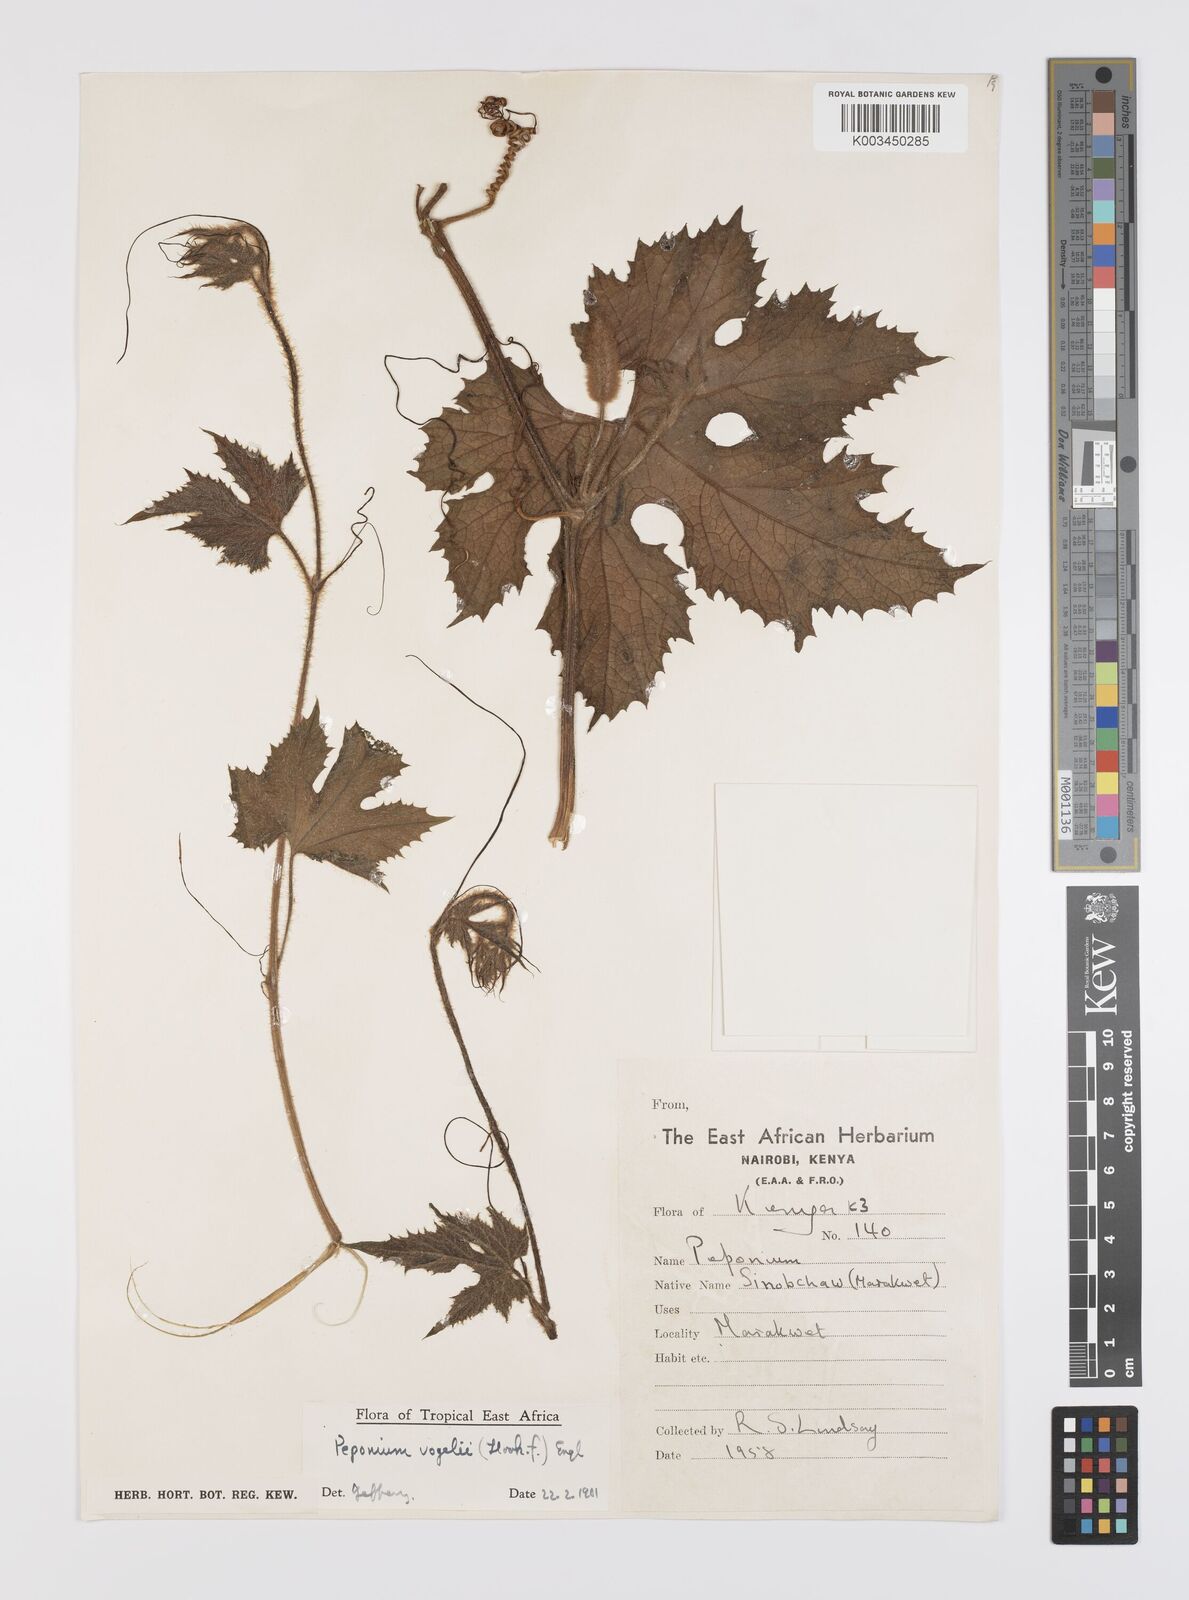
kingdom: Plantae
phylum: Tracheophyta
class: Magnoliopsida
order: Cucurbitales
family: Cucurbitaceae
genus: Peponium
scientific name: Peponium vogelii
